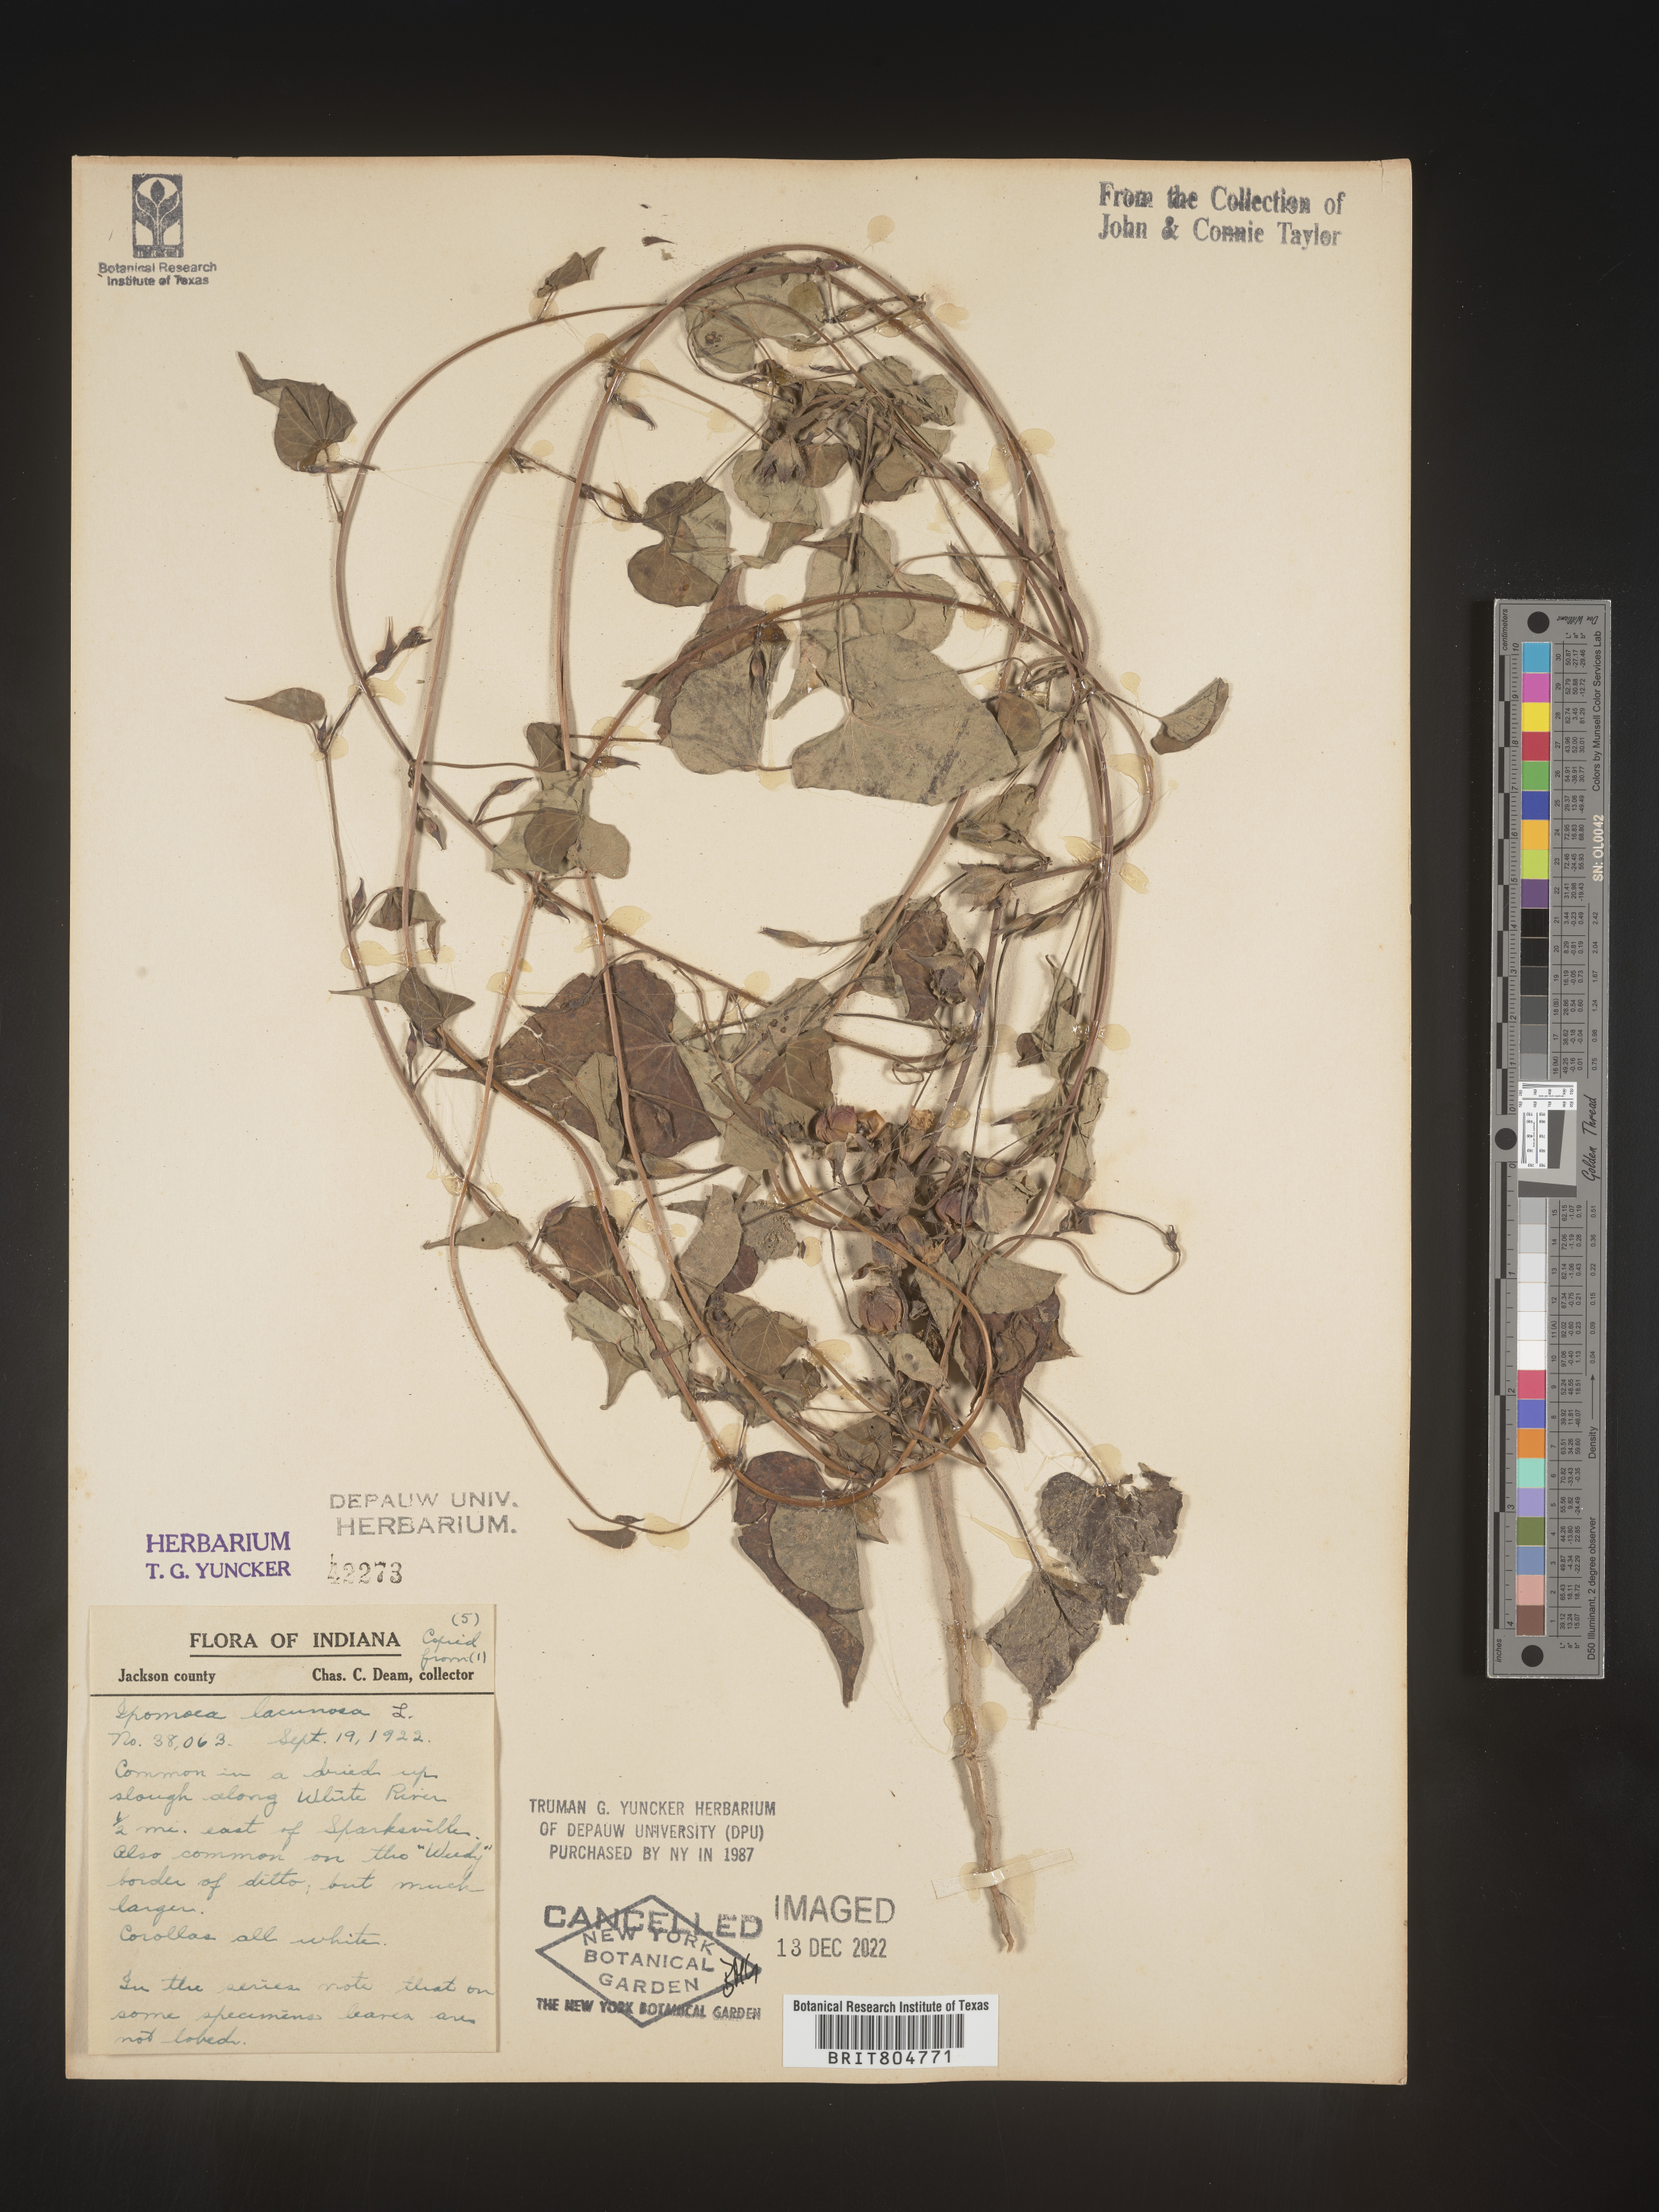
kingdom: Plantae
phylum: Tracheophyta
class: Magnoliopsida
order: Solanales
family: Convolvulaceae
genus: Ipomoea
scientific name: Ipomoea lacunosa
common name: White morning-glory
